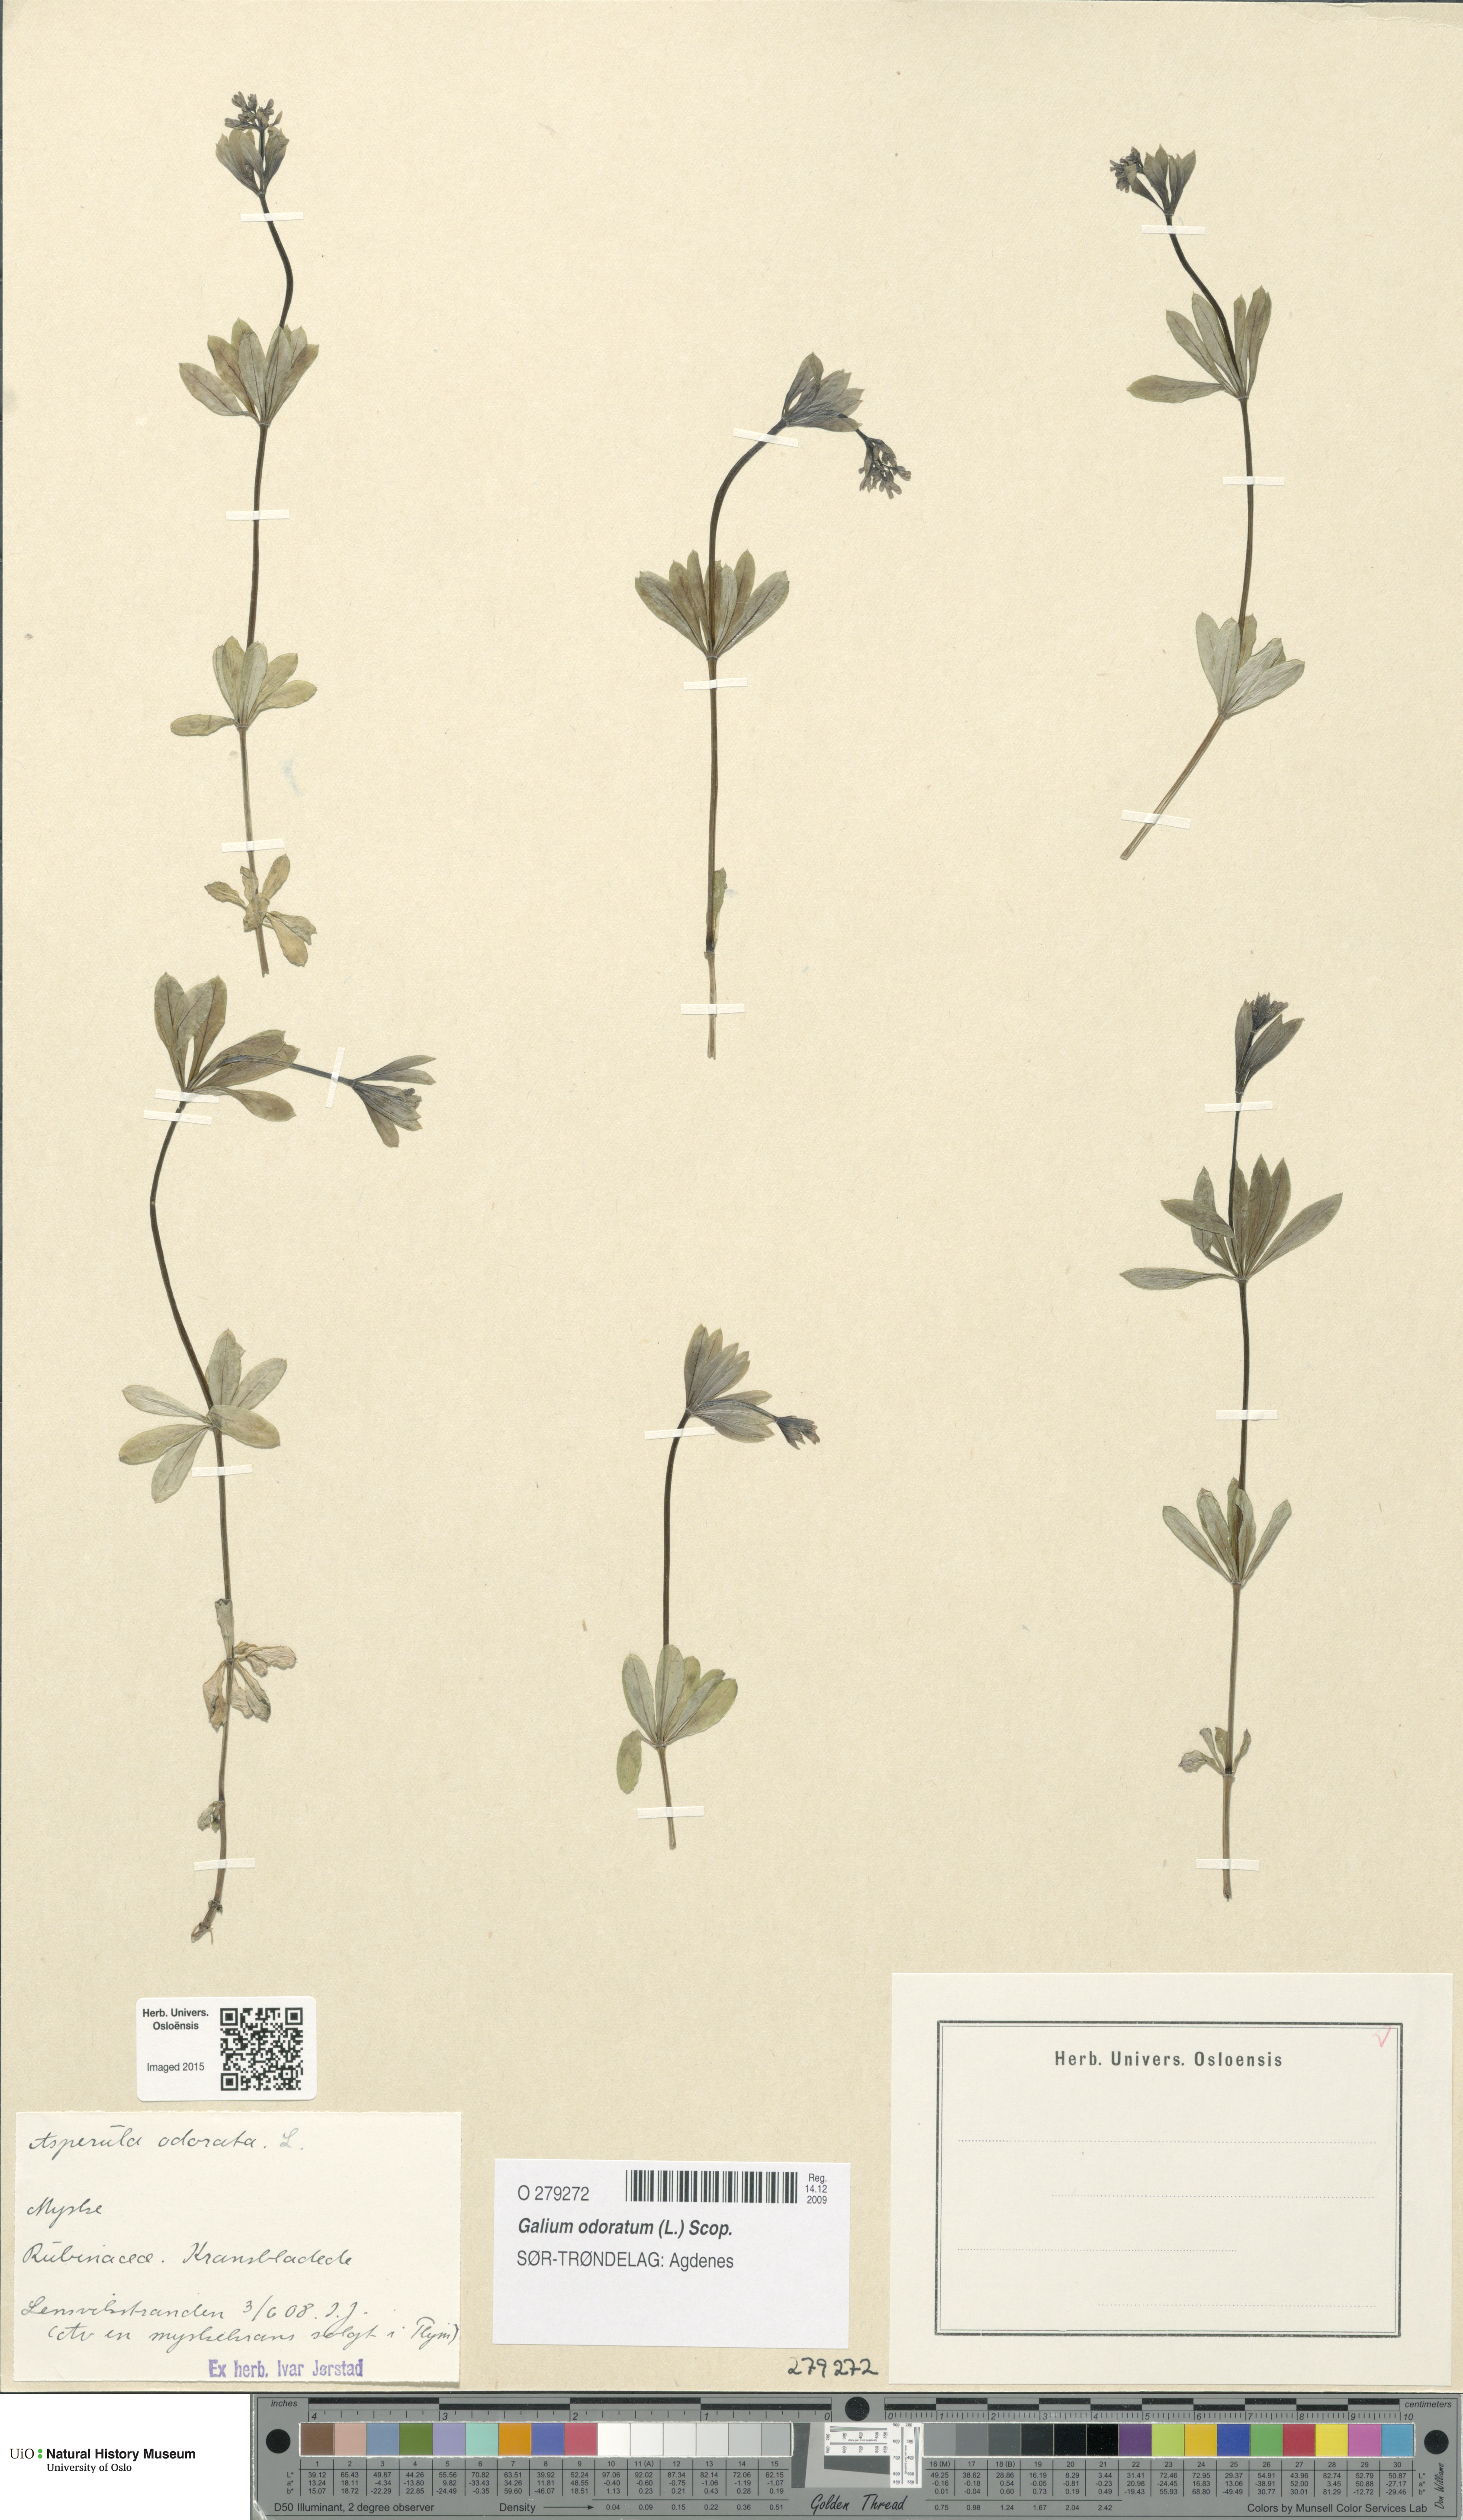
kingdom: Plantae
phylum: Tracheophyta
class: Magnoliopsida
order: Gentianales
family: Rubiaceae
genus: Galium
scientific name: Galium odoratum
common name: Sweet woodruff
